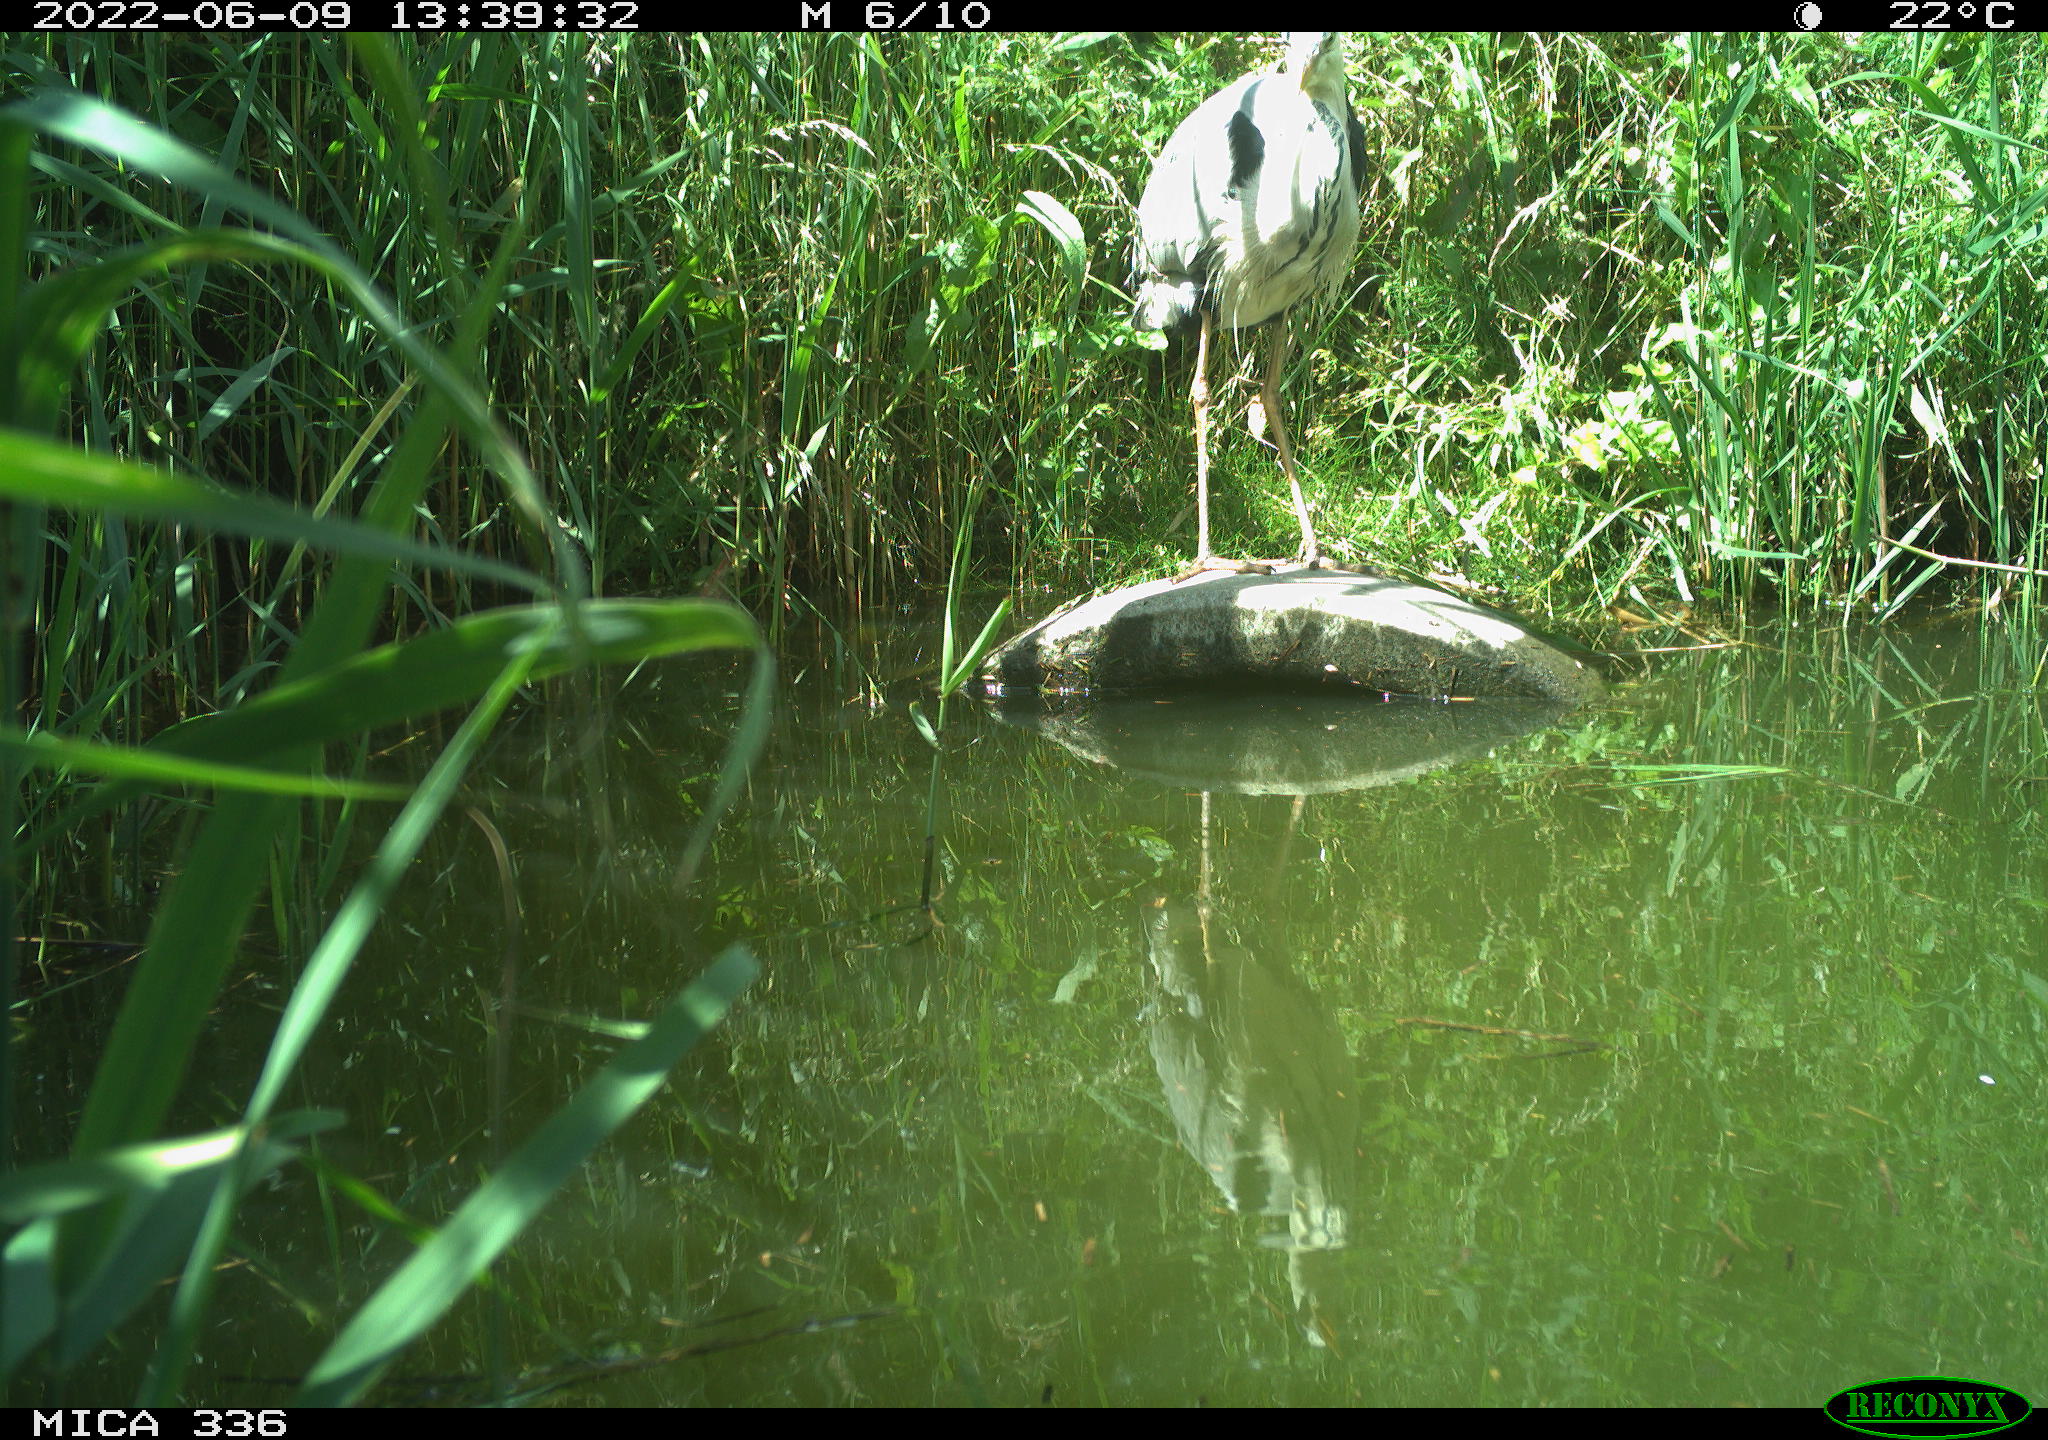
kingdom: Animalia
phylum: Chordata
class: Aves
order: Pelecaniformes
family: Ardeidae
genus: Ardea
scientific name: Ardea
